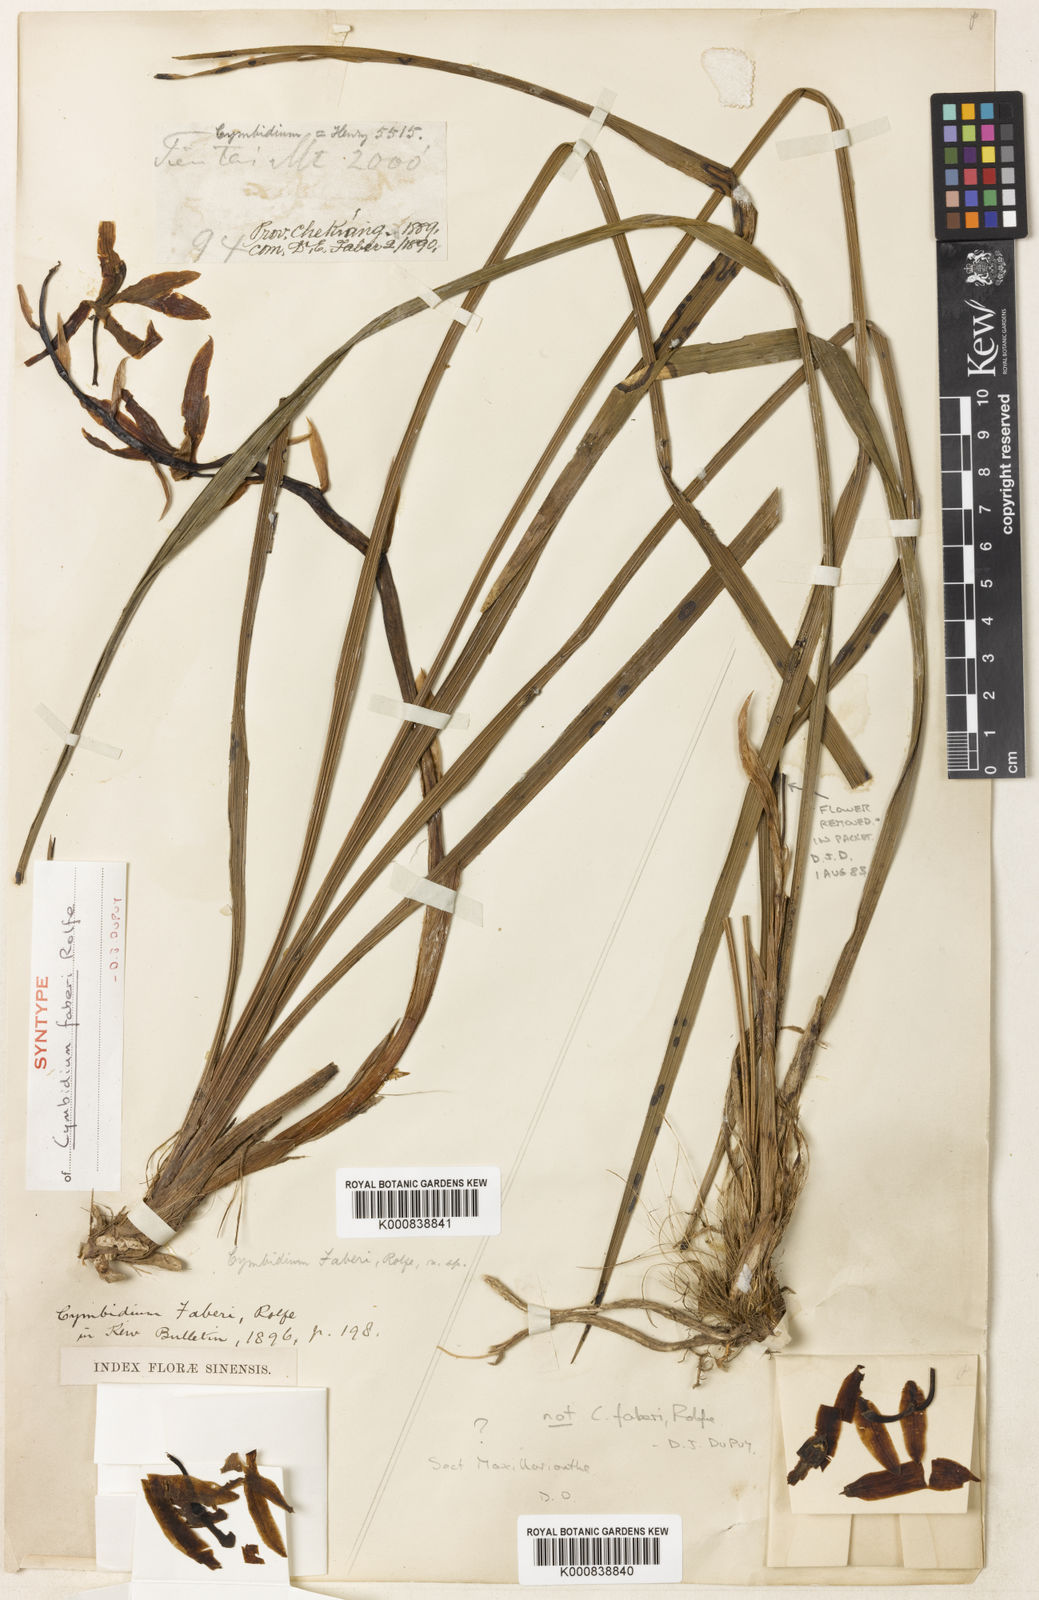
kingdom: Plantae
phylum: Tracheophyta
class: Liliopsida
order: Asparagales
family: Orchidaceae
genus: Cymbidium
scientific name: Cymbidium faberi
